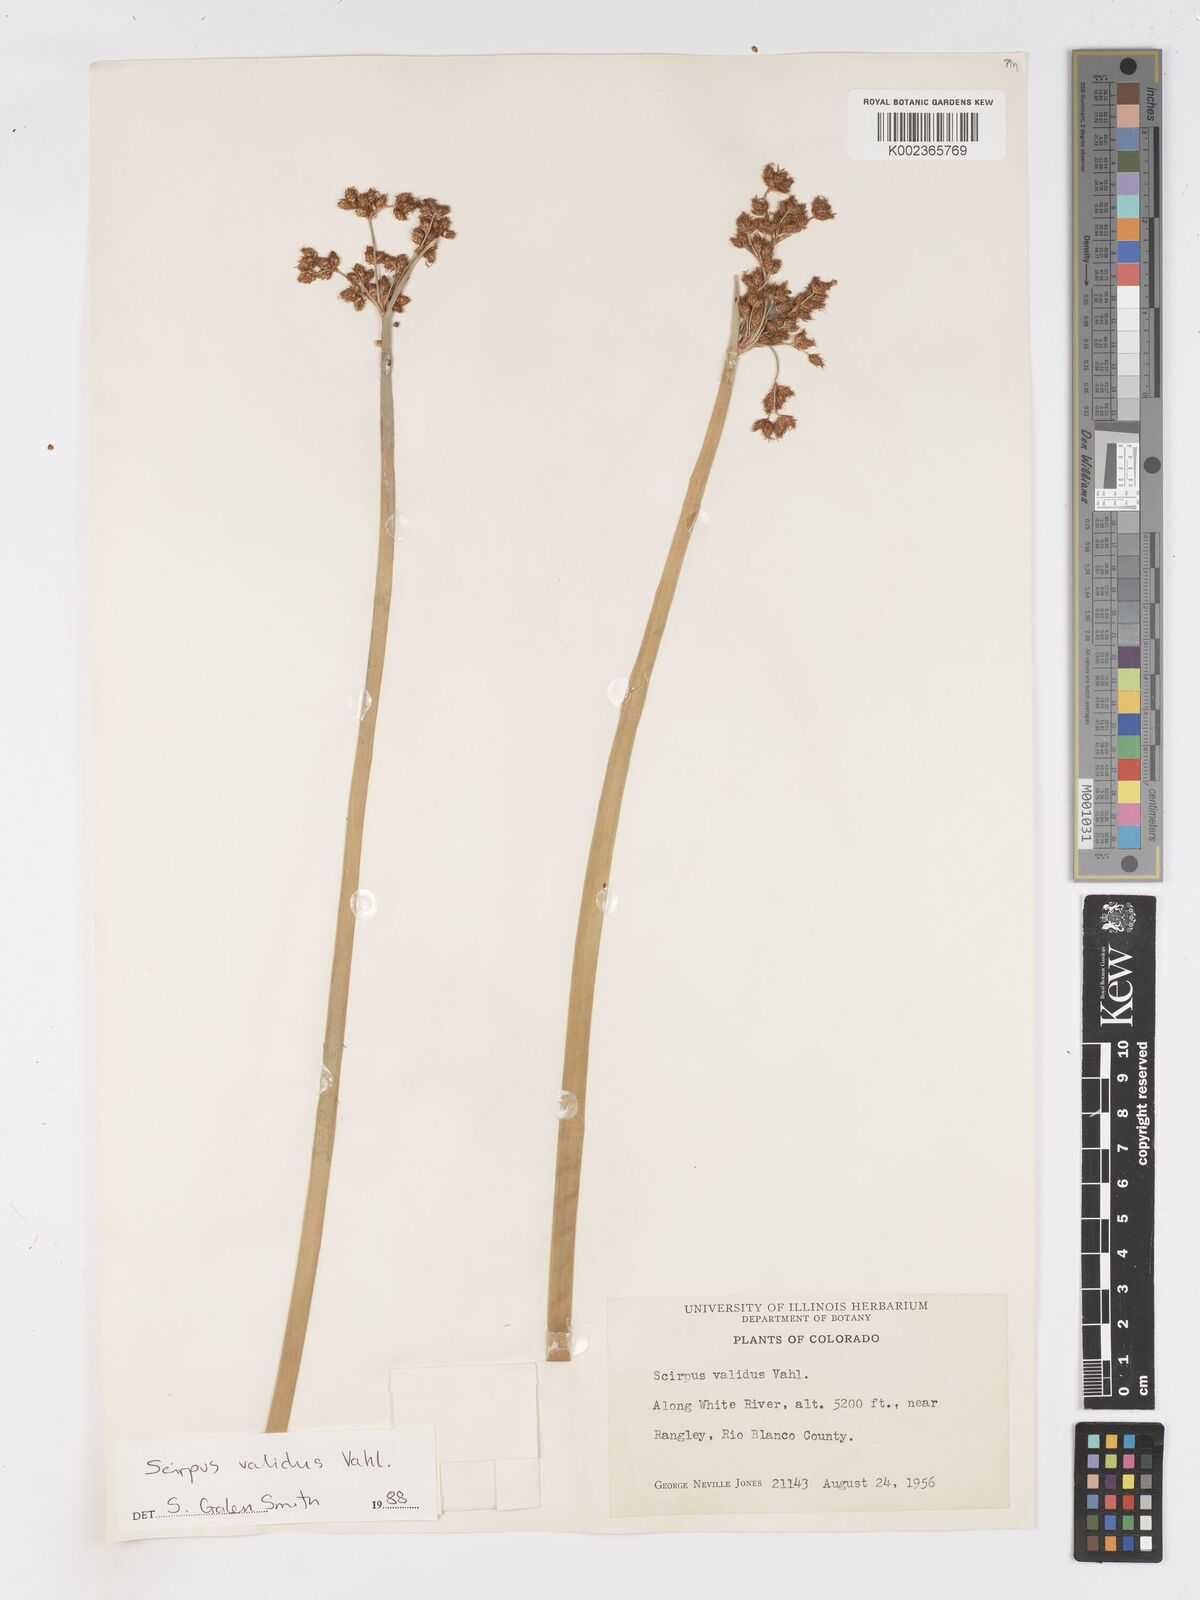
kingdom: Plantae
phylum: Tracheophyta
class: Liliopsida
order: Poales
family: Cyperaceae
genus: Schoenoplectus
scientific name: Schoenoplectus tabernaemontani
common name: Grey club-rush
